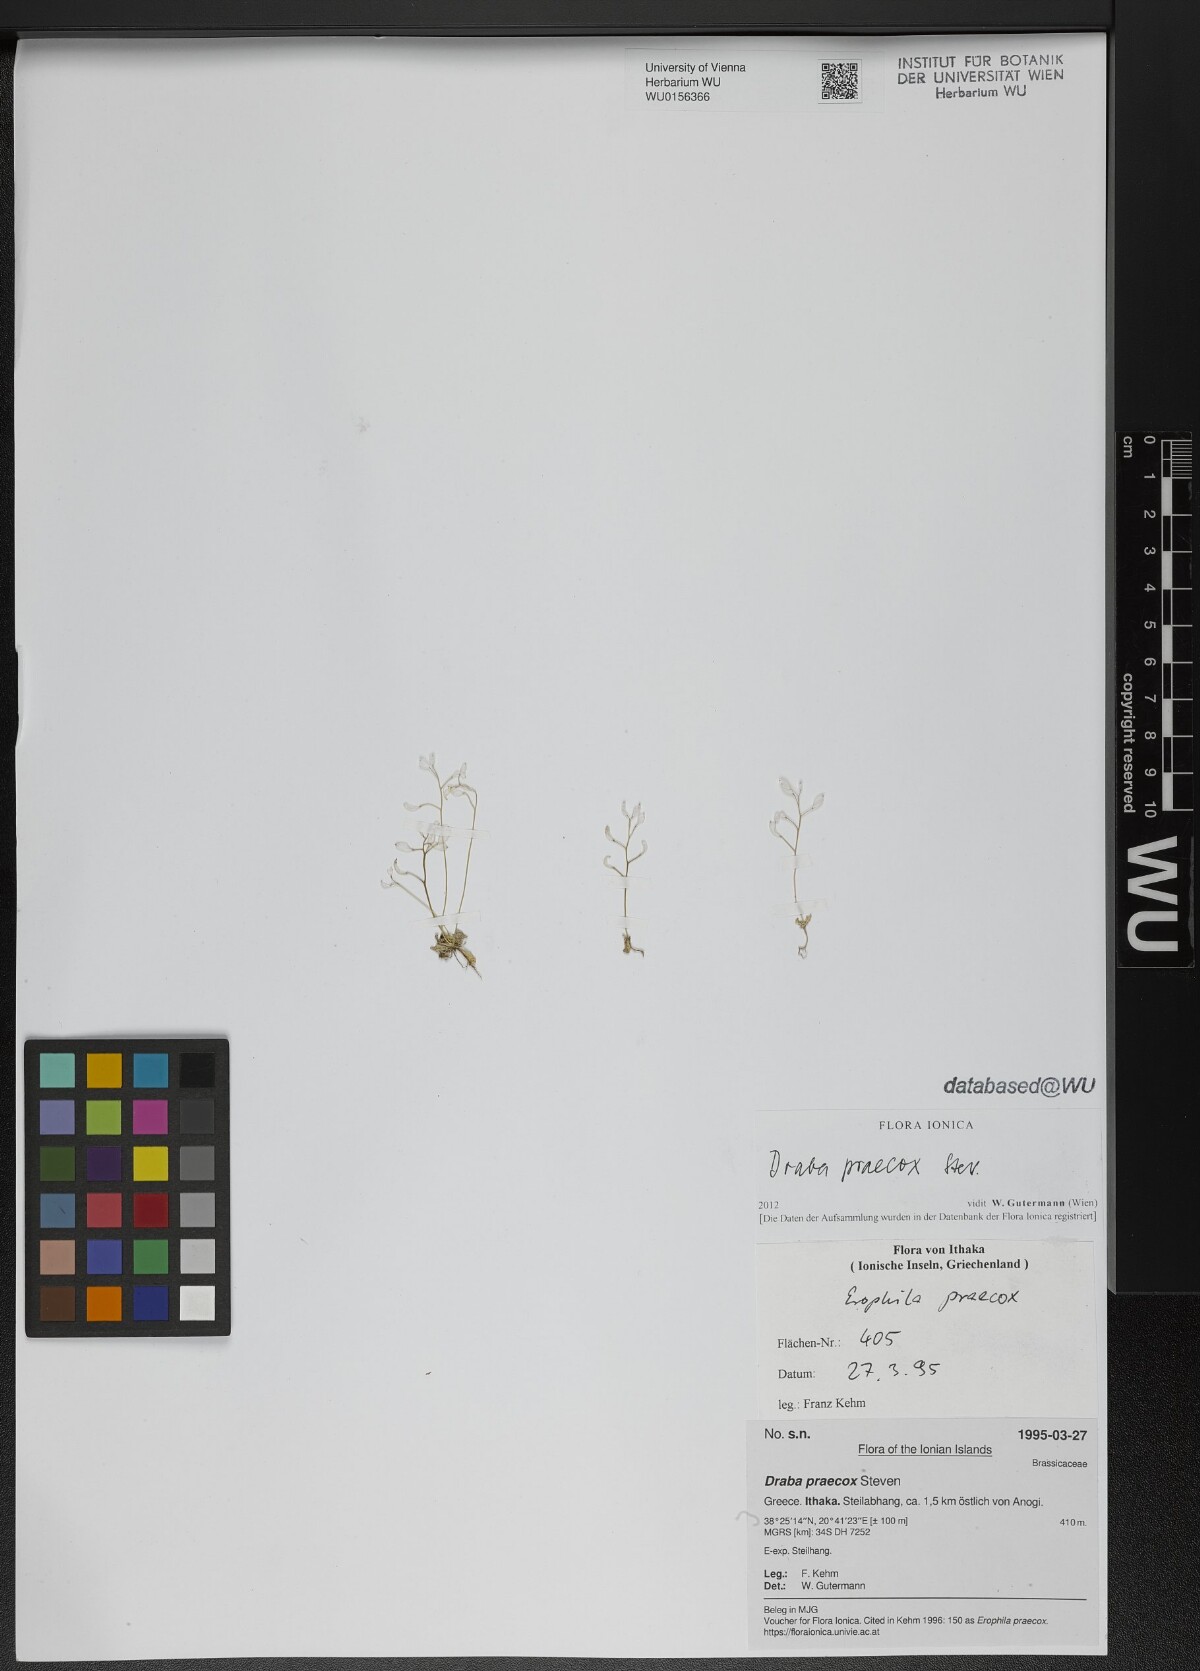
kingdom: Plantae
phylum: Tracheophyta
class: Magnoliopsida
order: Brassicales
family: Brassicaceae
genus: Draba
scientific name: Draba verna
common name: Spring draba
